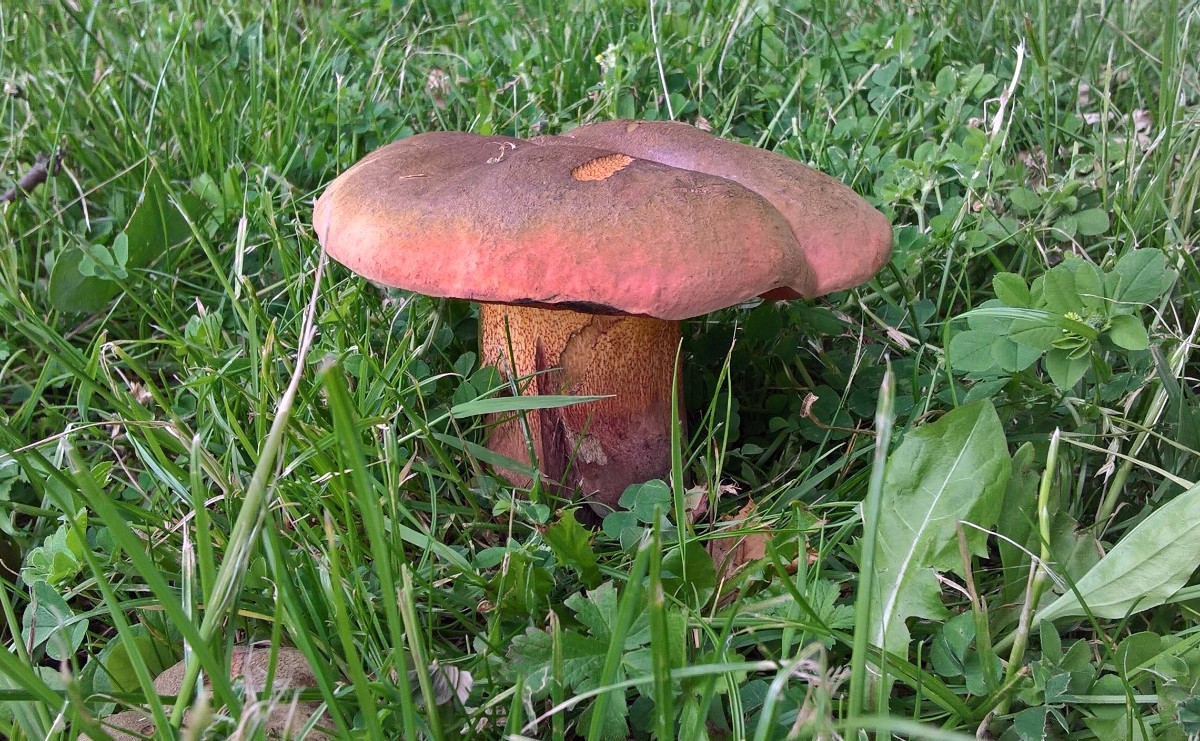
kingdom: Fungi
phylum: Basidiomycota
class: Agaricomycetes
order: Boletales
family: Boletaceae
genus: Suillellus
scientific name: Suillellus luridus
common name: netstokket indigorørhat
